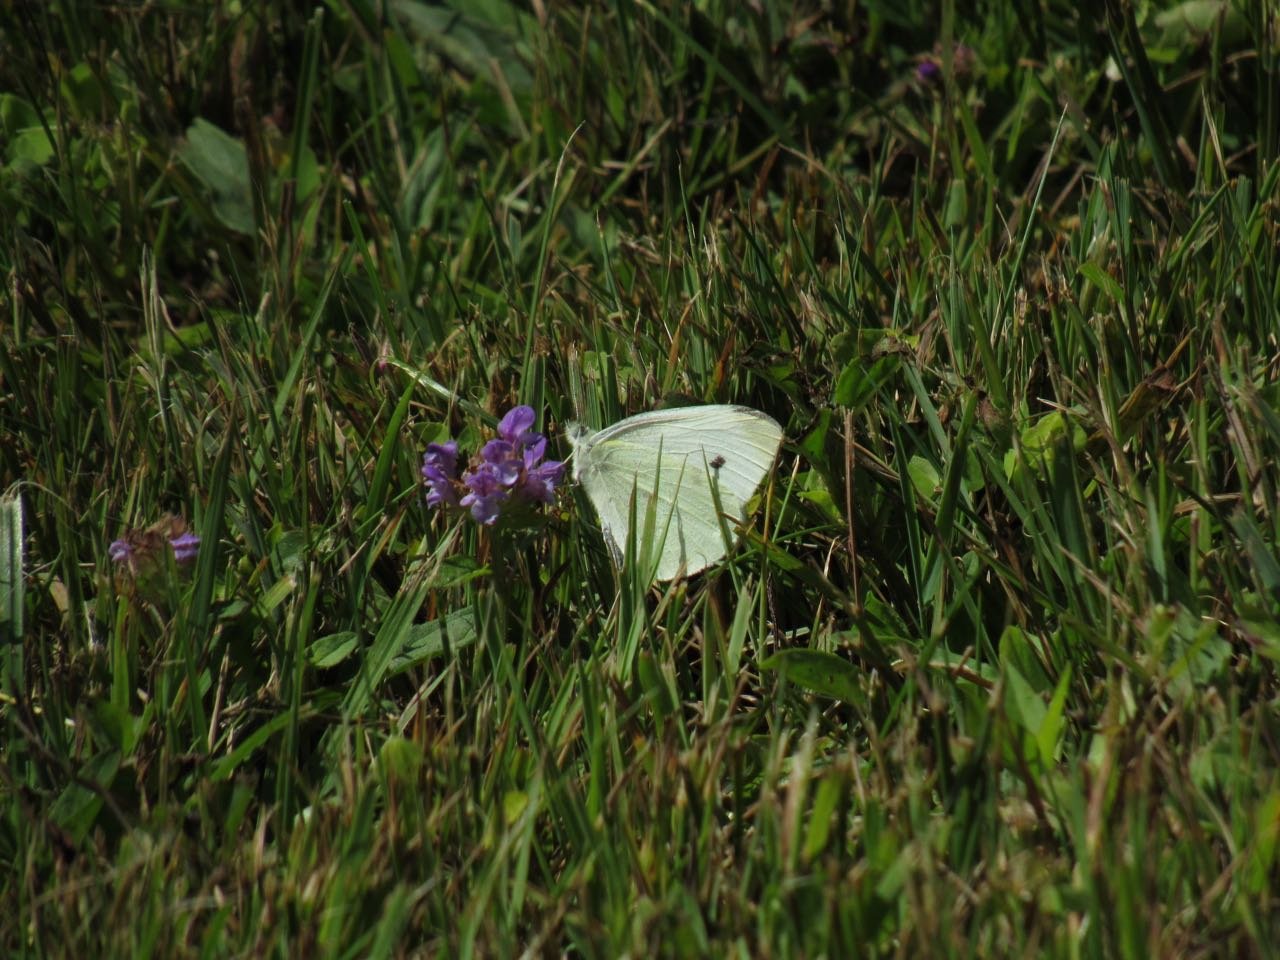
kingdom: Animalia
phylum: Arthropoda
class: Insecta
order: Lepidoptera
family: Pieridae
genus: Pieris
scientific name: Pieris rapae
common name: Cabbage White
